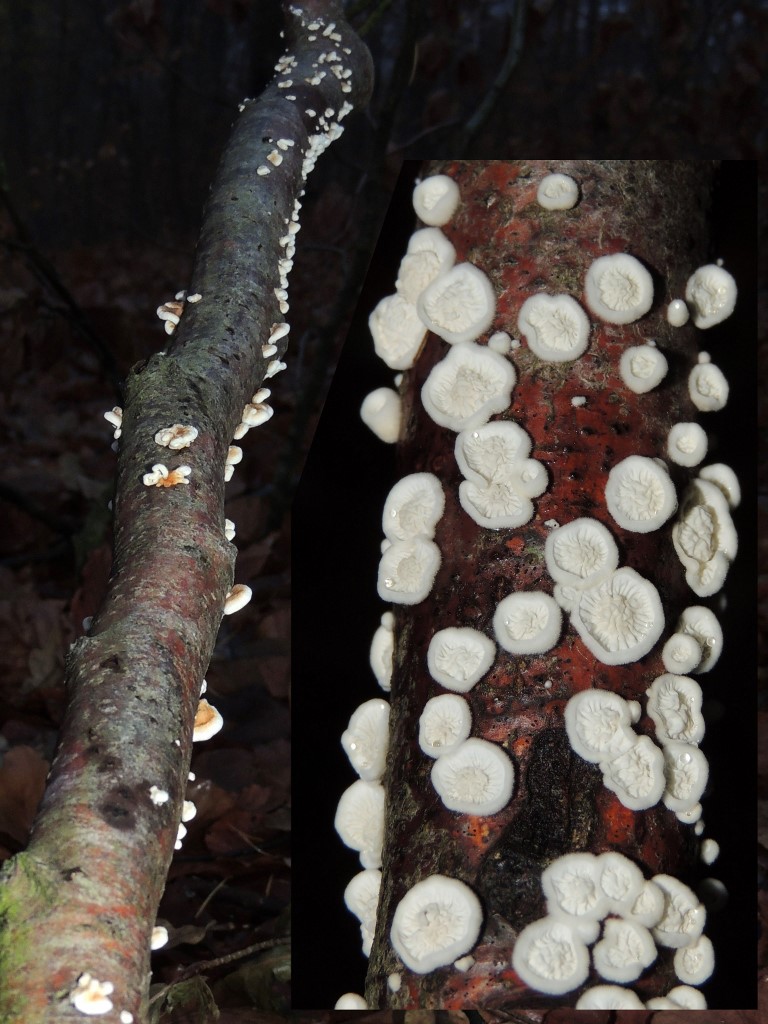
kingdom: Fungi
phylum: Basidiomycota
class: Agaricomycetes
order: Amylocorticiales
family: Amylocorticiaceae
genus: Plicaturopsis
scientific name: Plicaturopsis crispa
